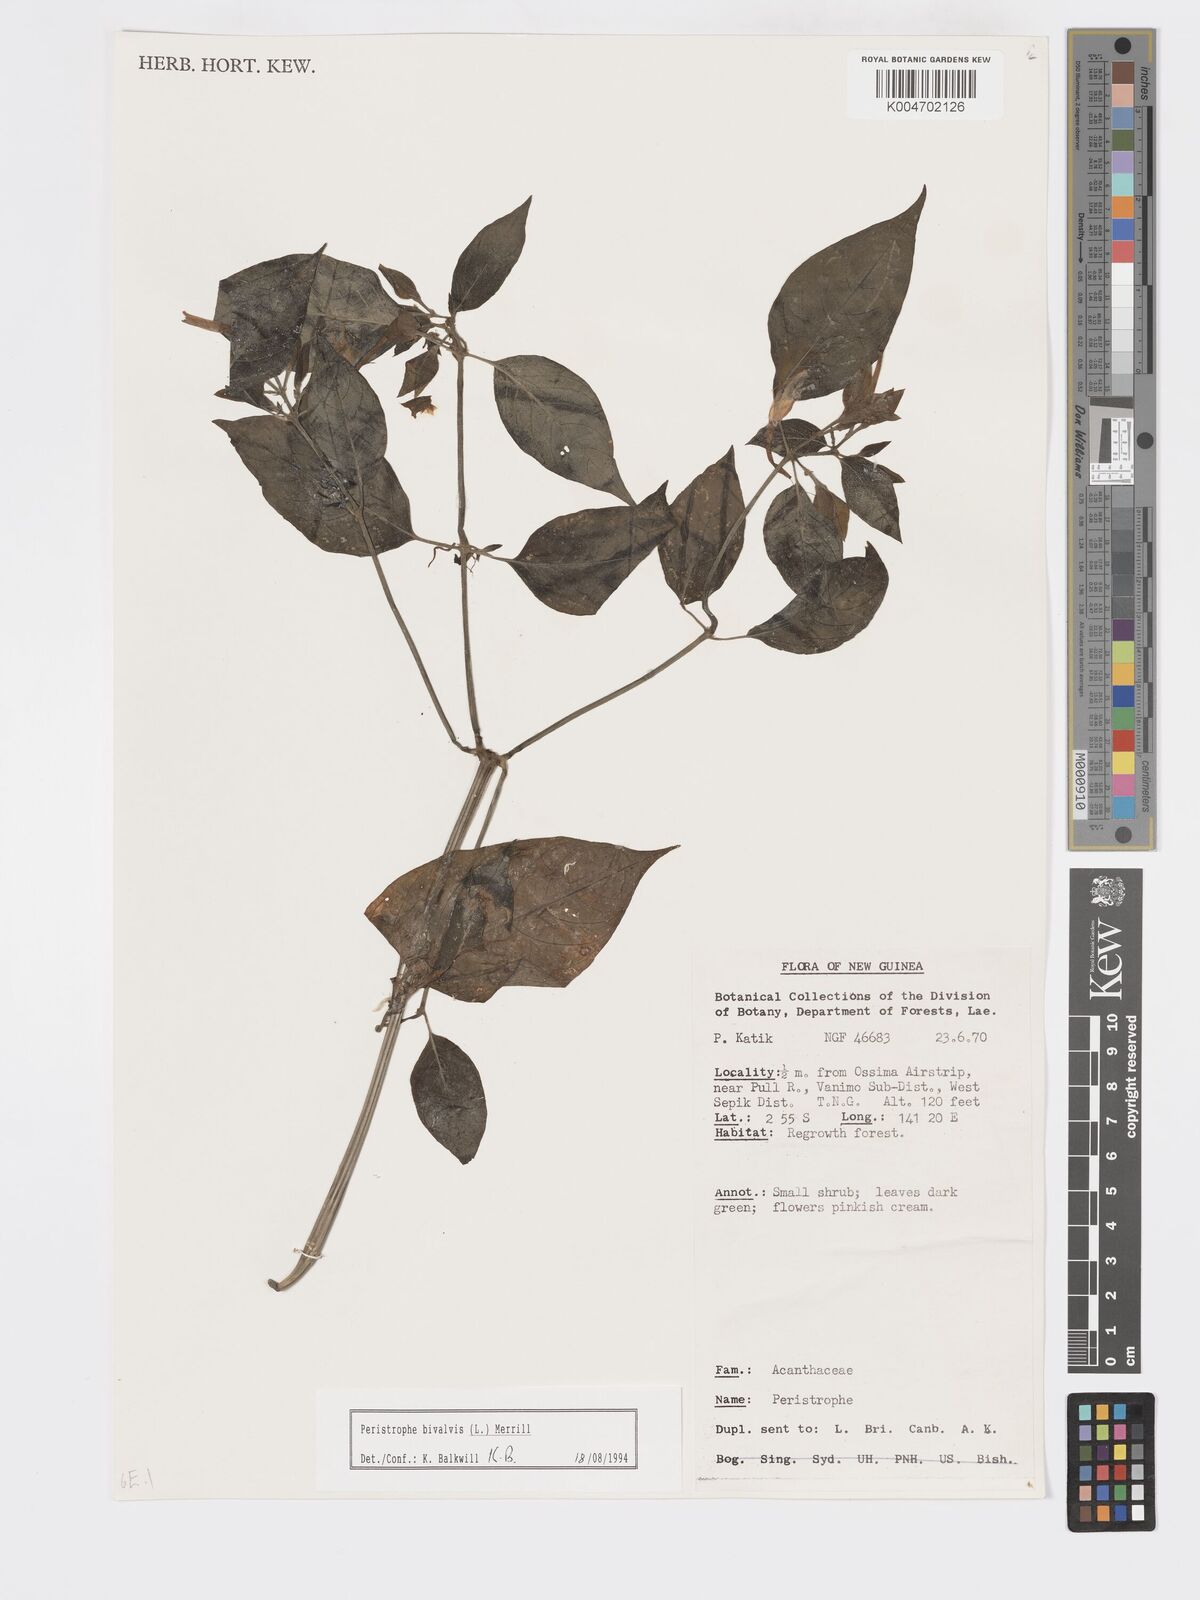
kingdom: Plantae
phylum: Tracheophyta
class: Magnoliopsida
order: Lamiales
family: Acanthaceae
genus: Dicliptera
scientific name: Dicliptera
